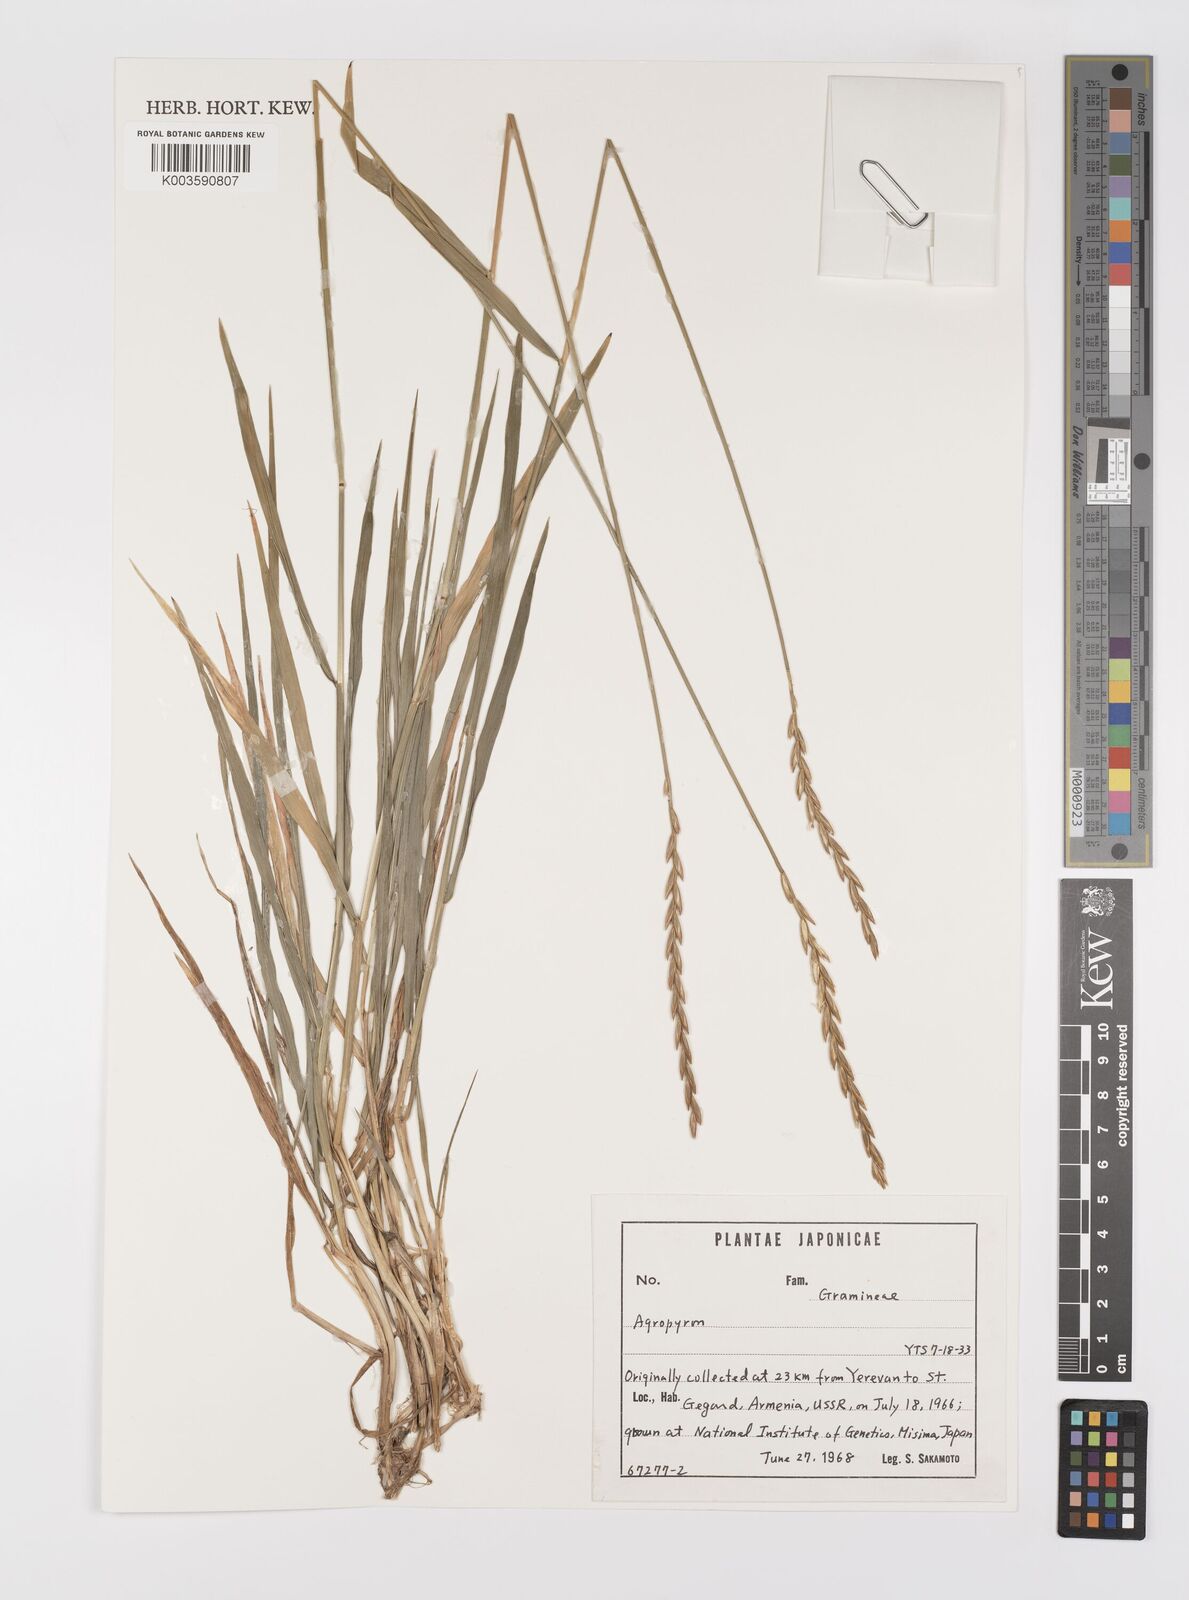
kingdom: Plantae
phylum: Tracheophyta
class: Liliopsida
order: Poales
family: Poaceae
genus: Elymus
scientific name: Elymus
